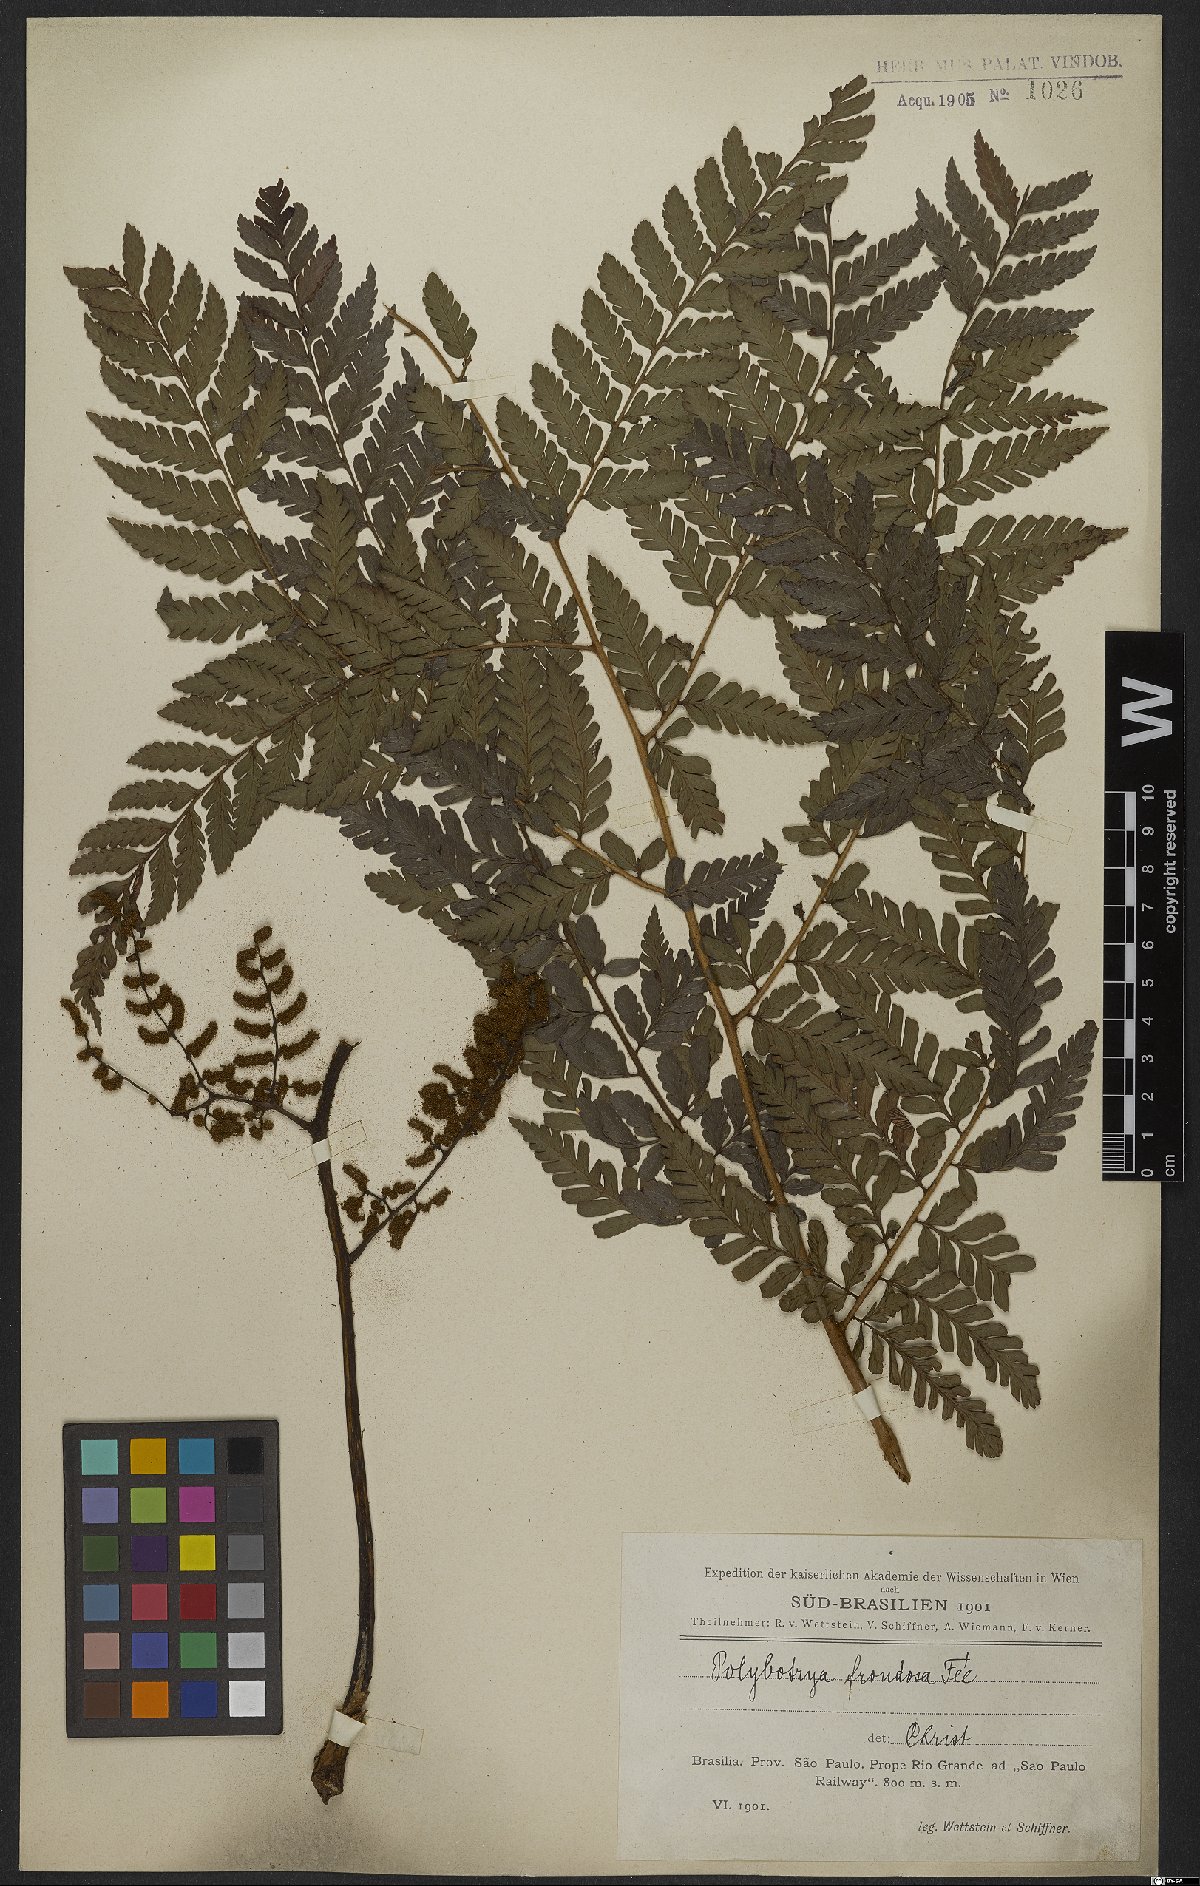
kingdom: Plantae
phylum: Tracheophyta
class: Polypodiopsida
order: Polypodiales
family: Dryopteridaceae
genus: Polybotrya
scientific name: Polybotrya cylindrica
